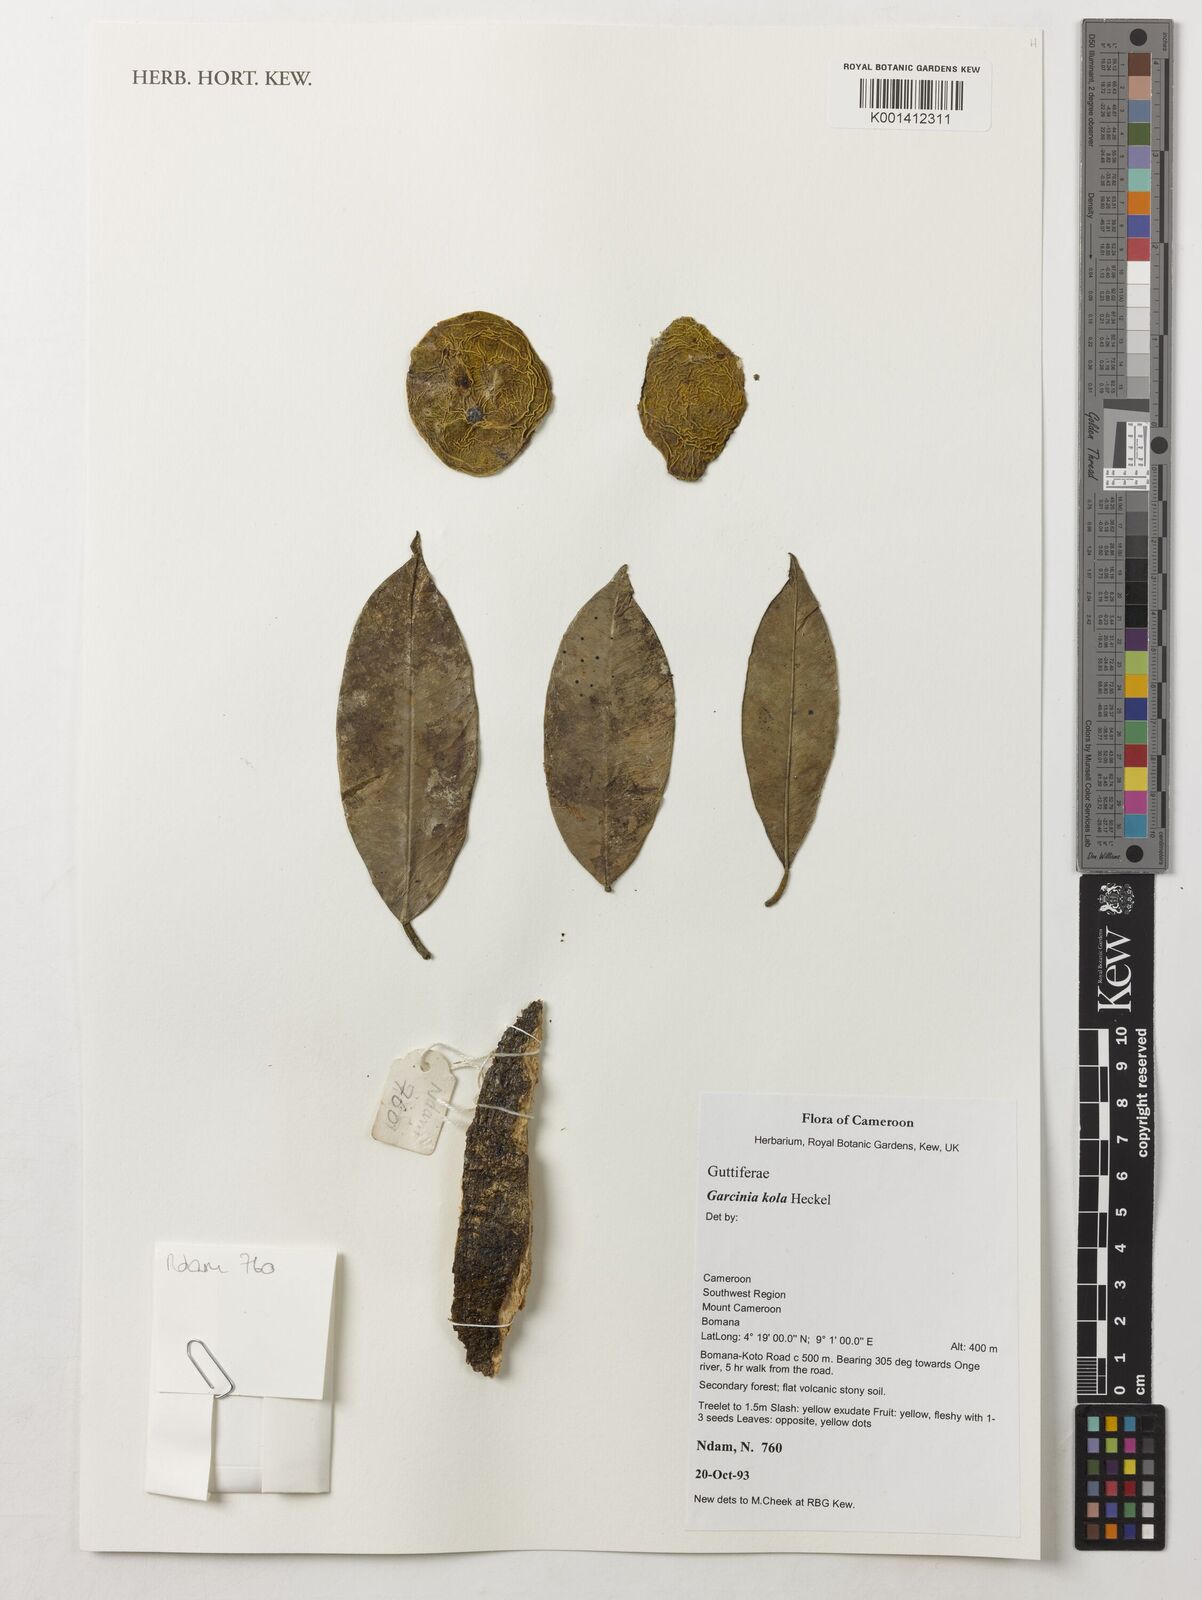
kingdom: Plantae
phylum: Tracheophyta
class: Magnoliopsida
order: Malpighiales
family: Clusiaceae
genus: Garcinia
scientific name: Garcinia kola
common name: Bitter-kola
